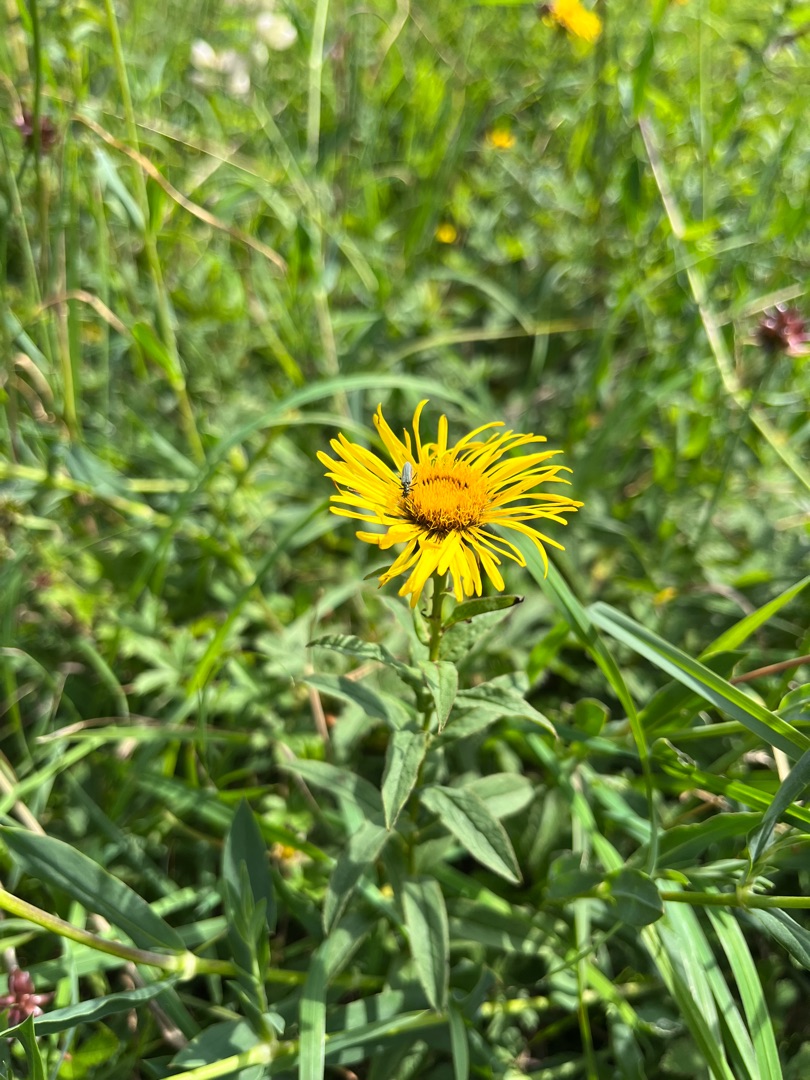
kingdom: Plantae
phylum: Tracheophyta
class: Magnoliopsida
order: Asterales
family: Asteraceae
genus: Pentanema
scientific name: Pentanema salicinum
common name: Pile-alant
